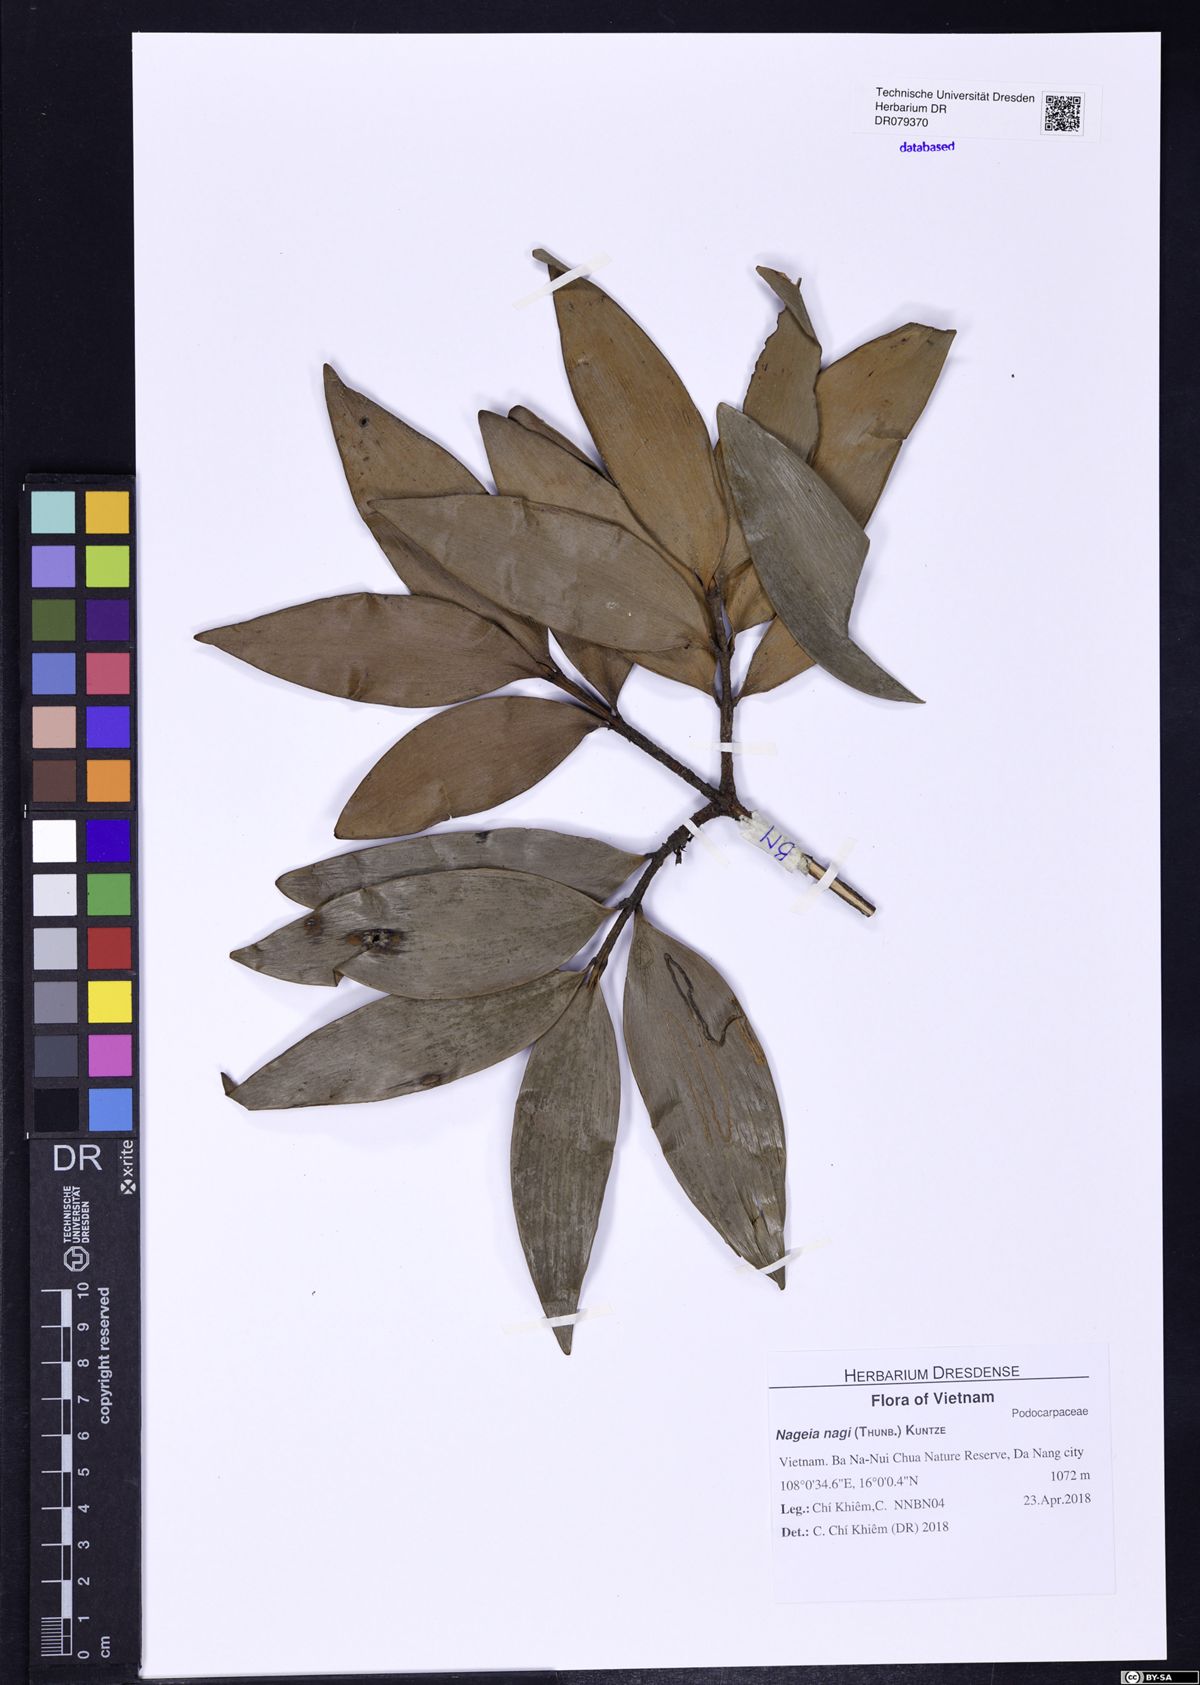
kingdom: Plantae
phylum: Tracheophyta
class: Pinopsida
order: Pinales
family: Podocarpaceae
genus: Nageia
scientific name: Nageia nagi
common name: Kaphal
